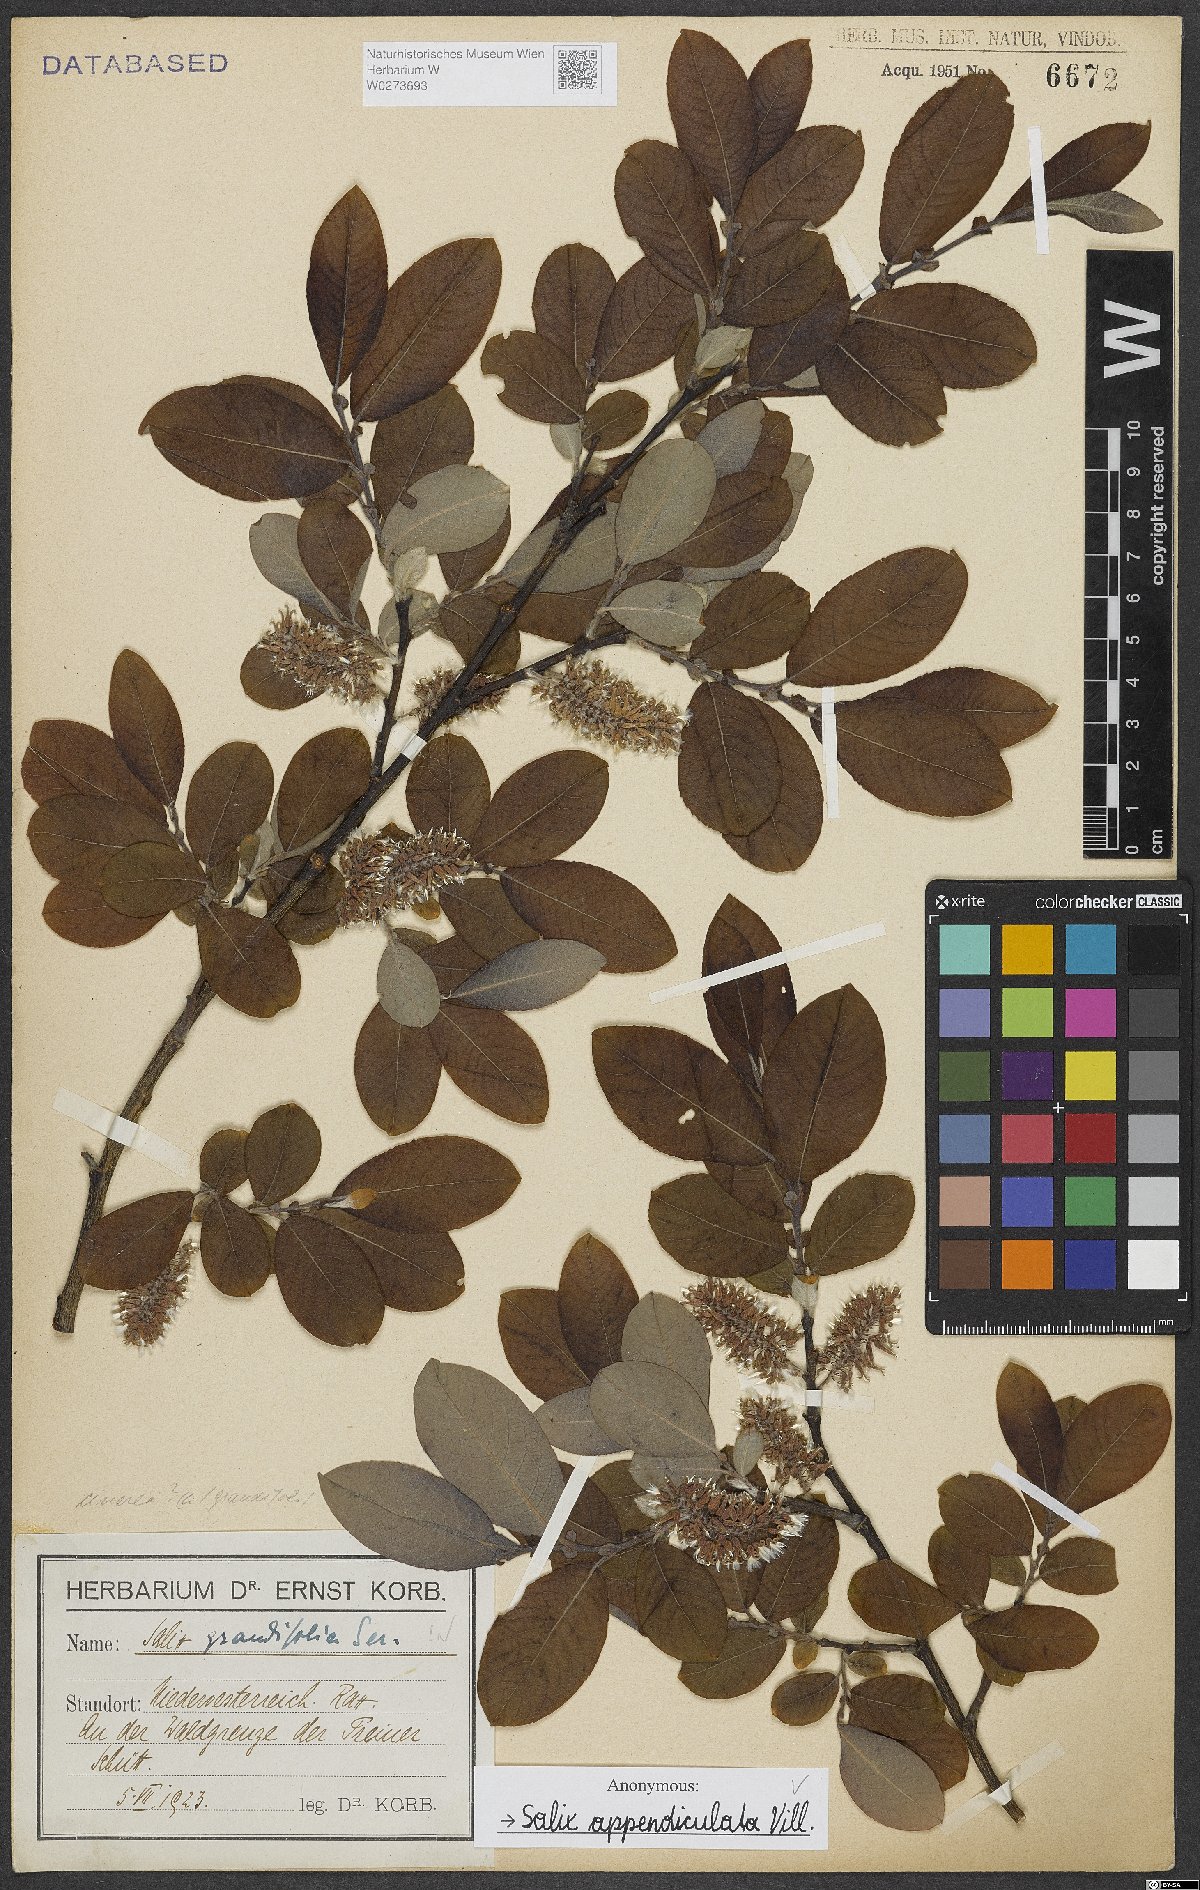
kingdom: Plantae
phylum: Tracheophyta
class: Magnoliopsida
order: Malpighiales
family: Salicaceae
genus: Salix
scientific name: Salix appendiculata
